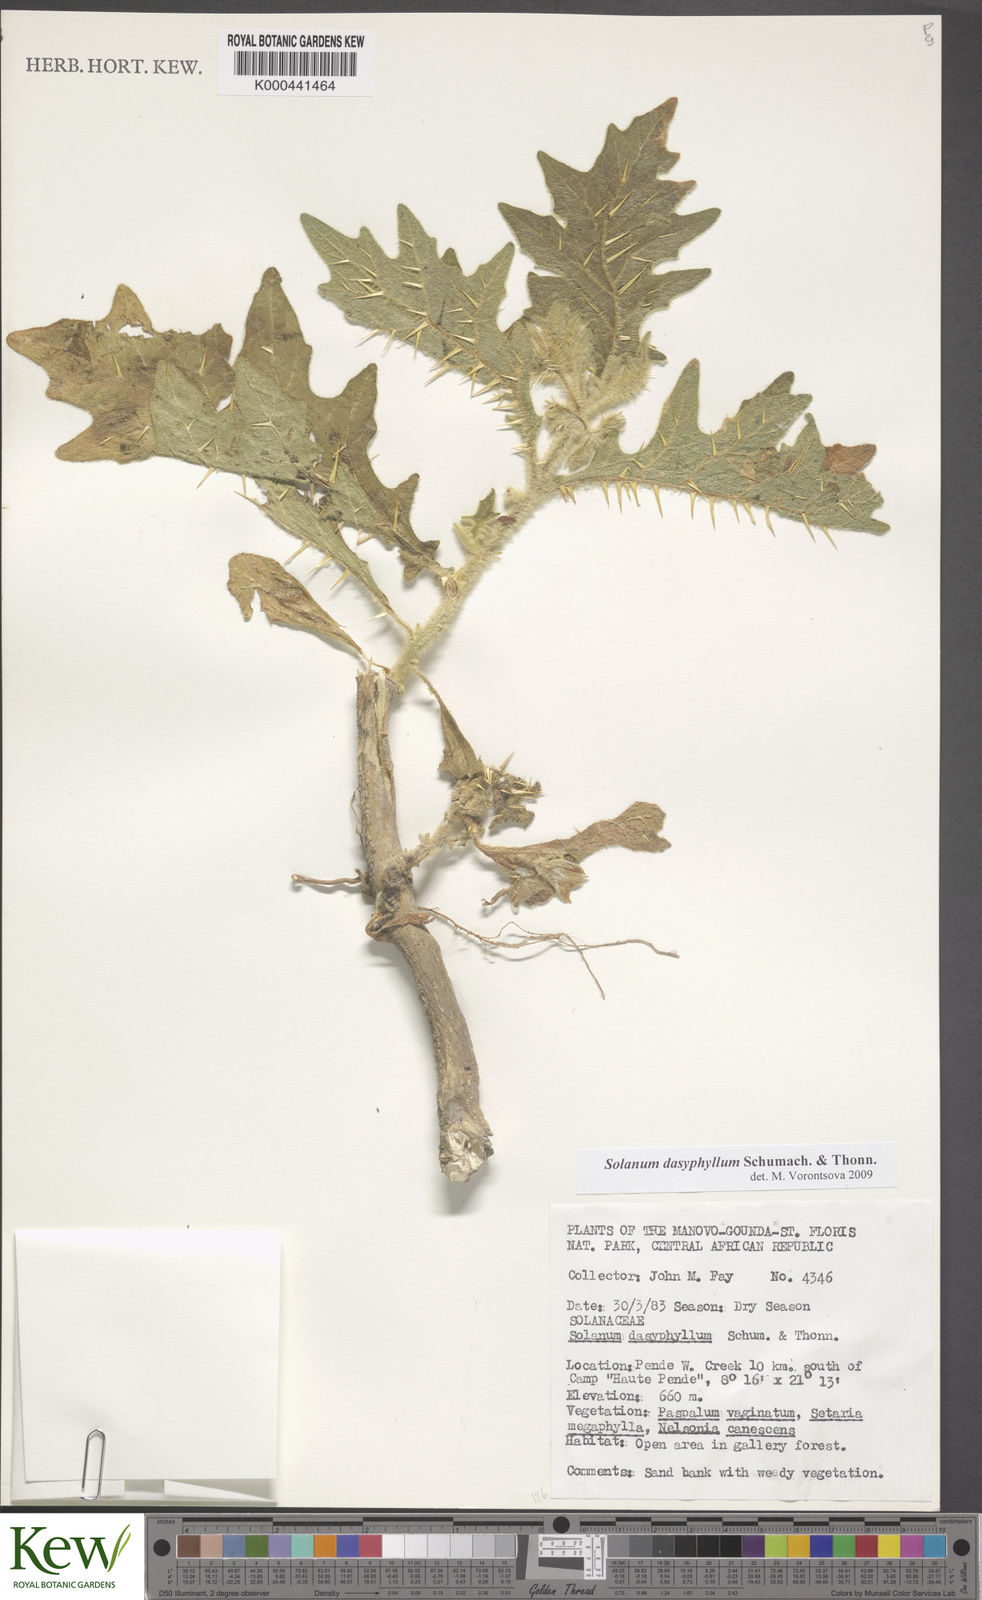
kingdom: Plantae
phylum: Tracheophyta
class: Magnoliopsida
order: Solanales
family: Solanaceae
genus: Solanum
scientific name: Solanum dasyphyllum
